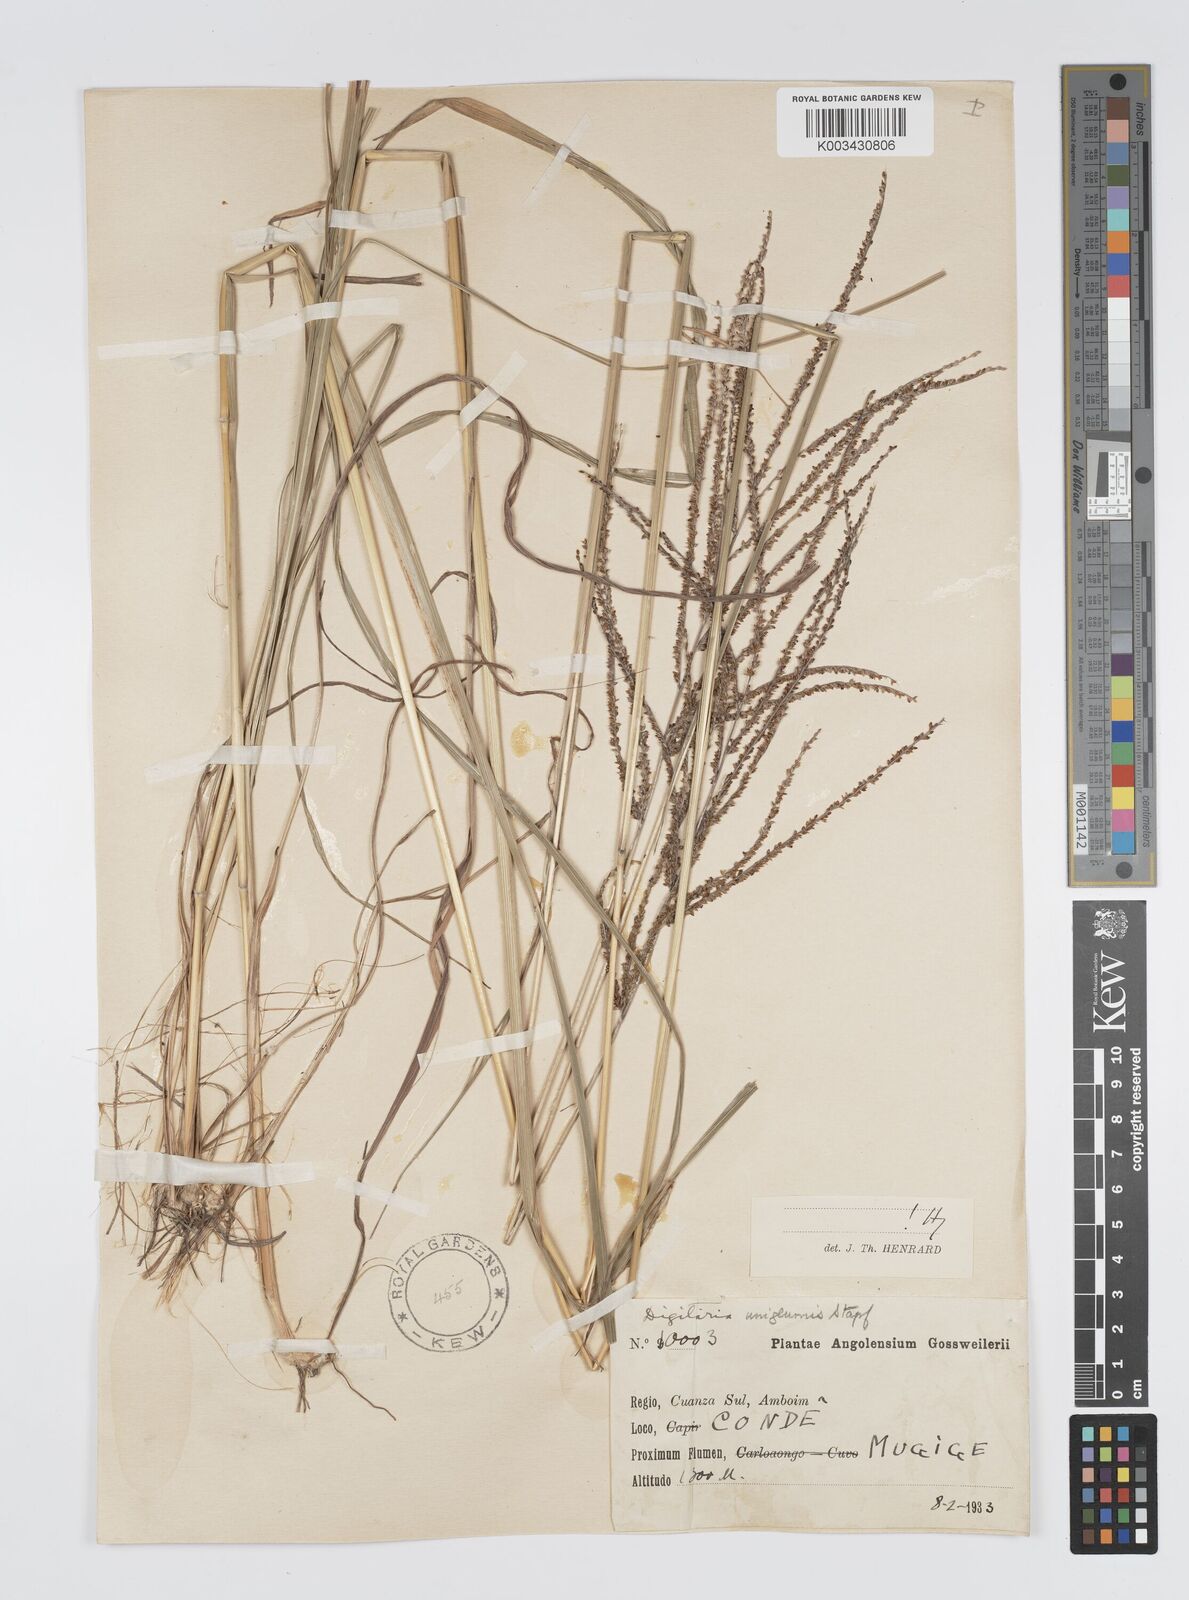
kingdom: Plantae
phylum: Tracheophyta
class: Liliopsida
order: Poales
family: Poaceae
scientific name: Poaceae
